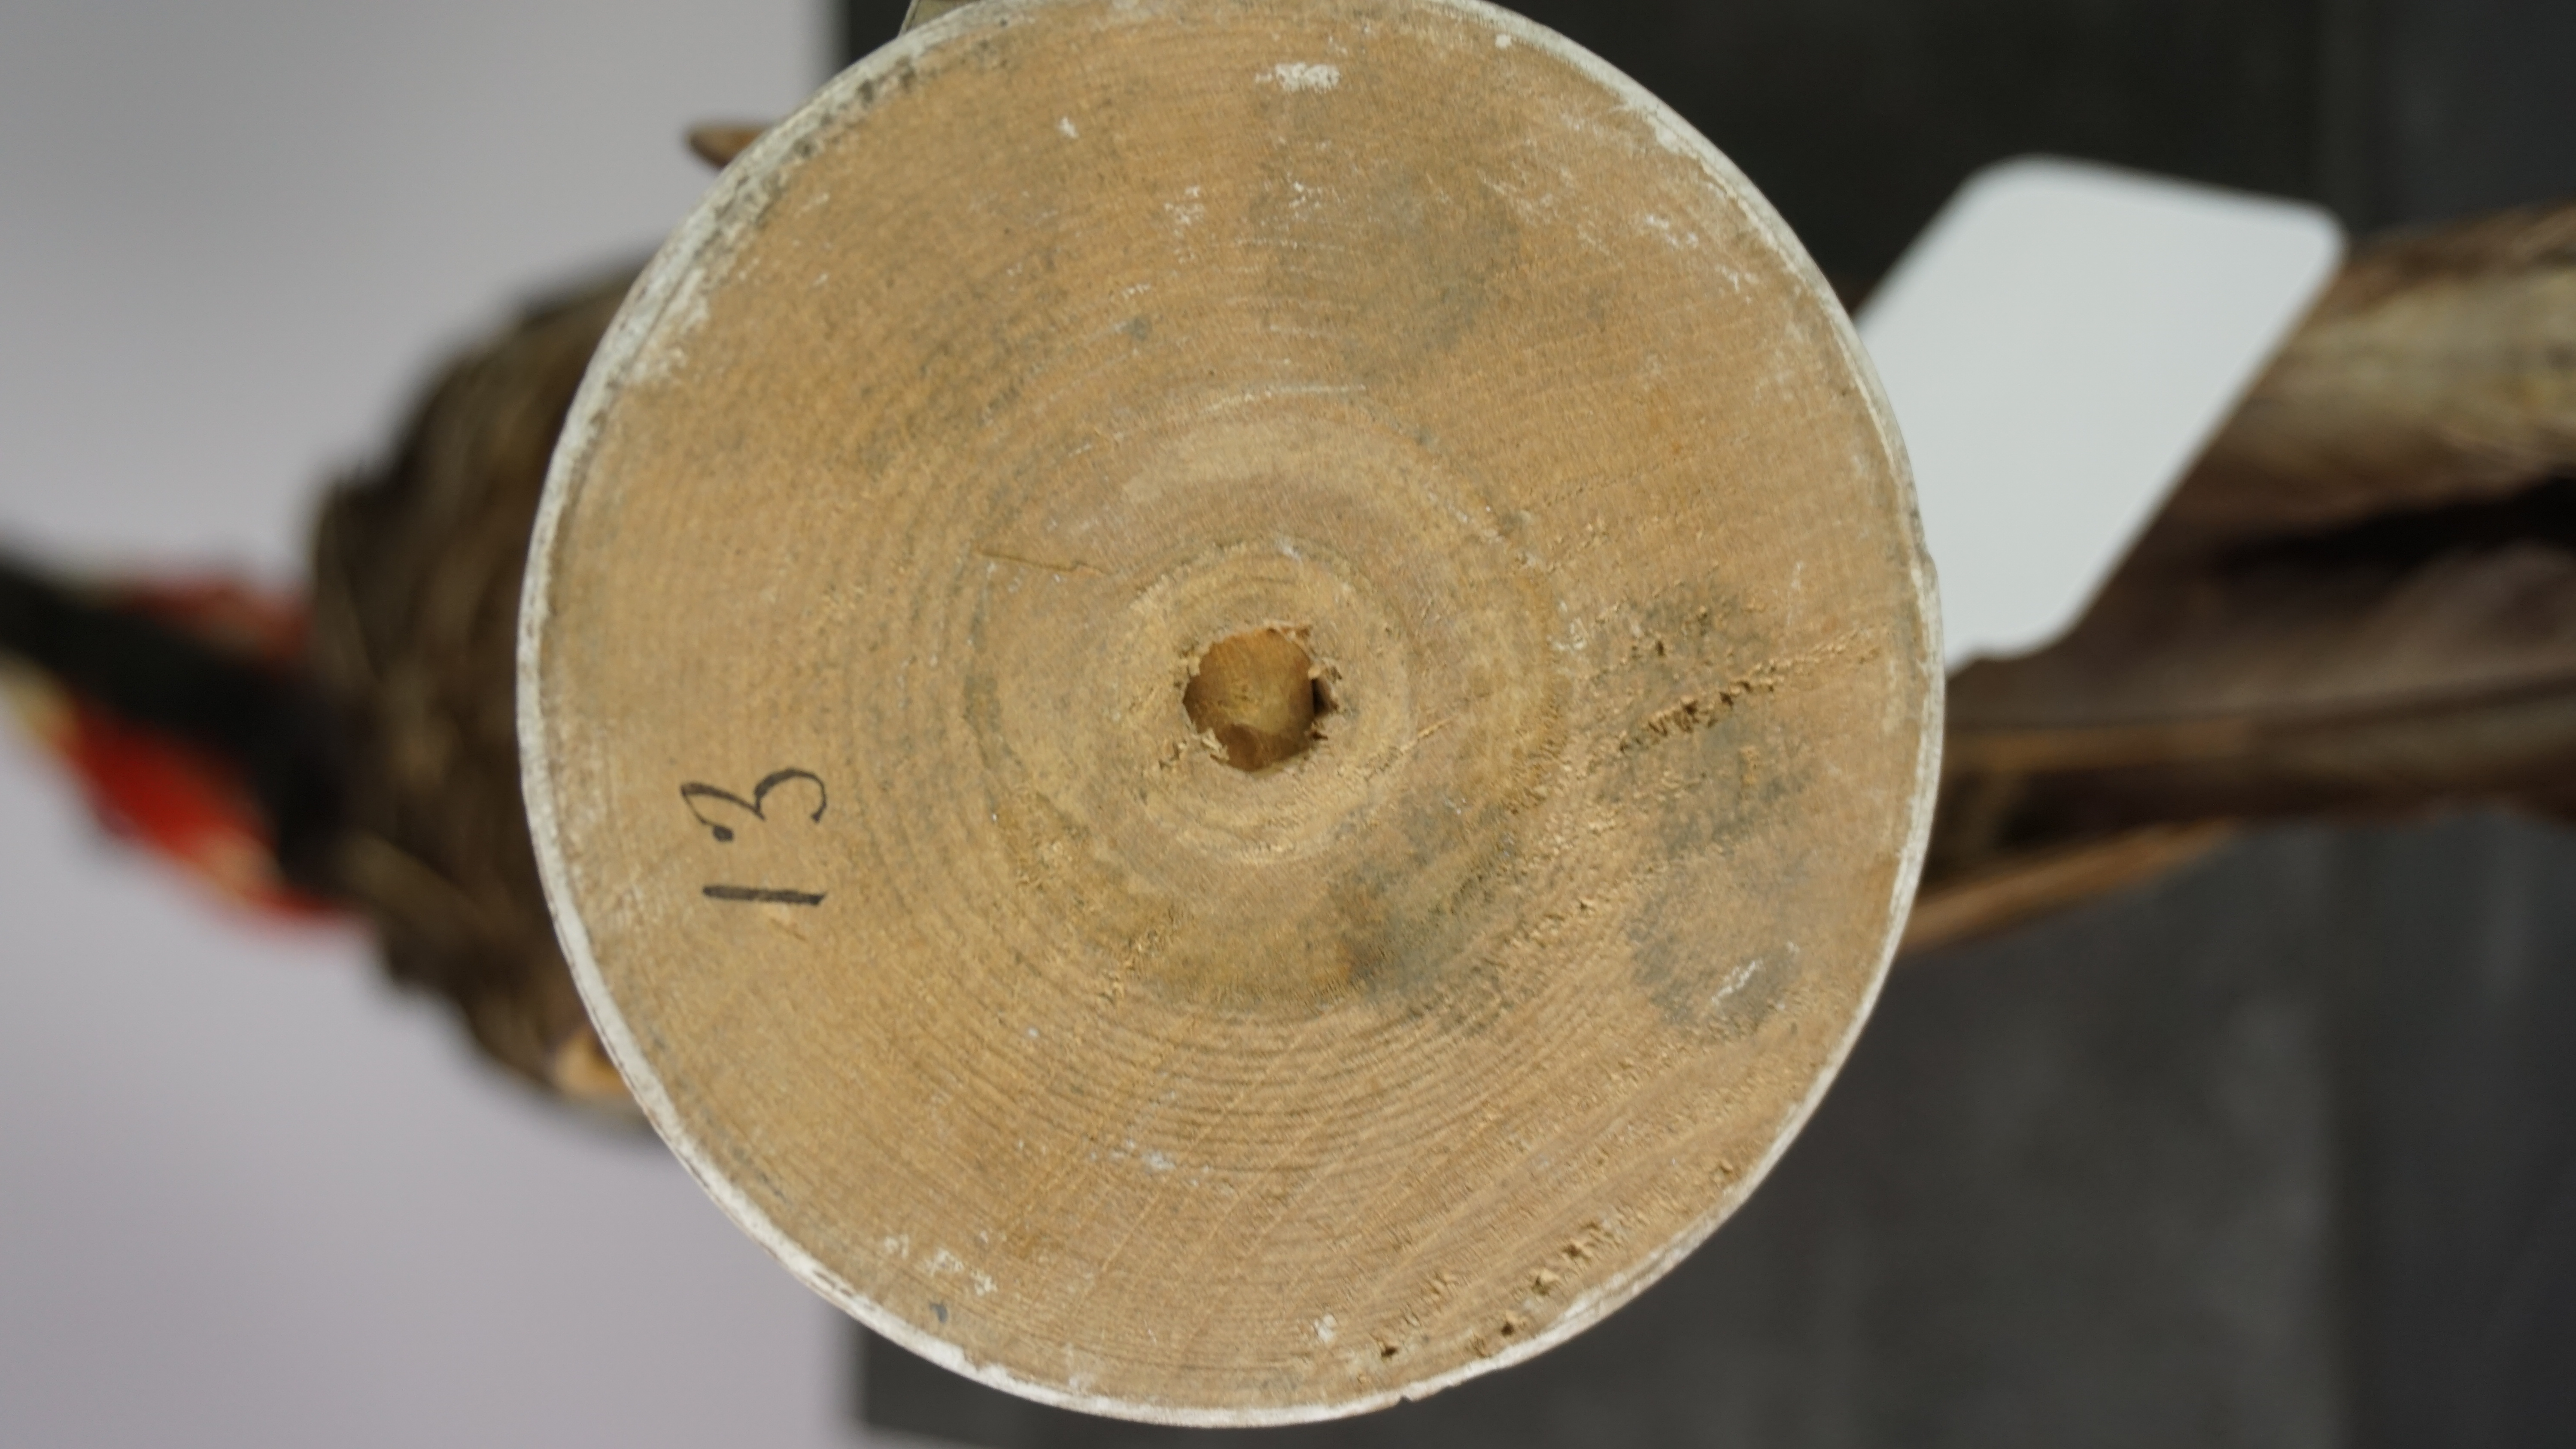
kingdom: Animalia
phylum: Chordata
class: Aves
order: Piciformes
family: Picidae
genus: Campephilus
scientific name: Campephilus melanoleucos
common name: Crimson-crested woodpecker
